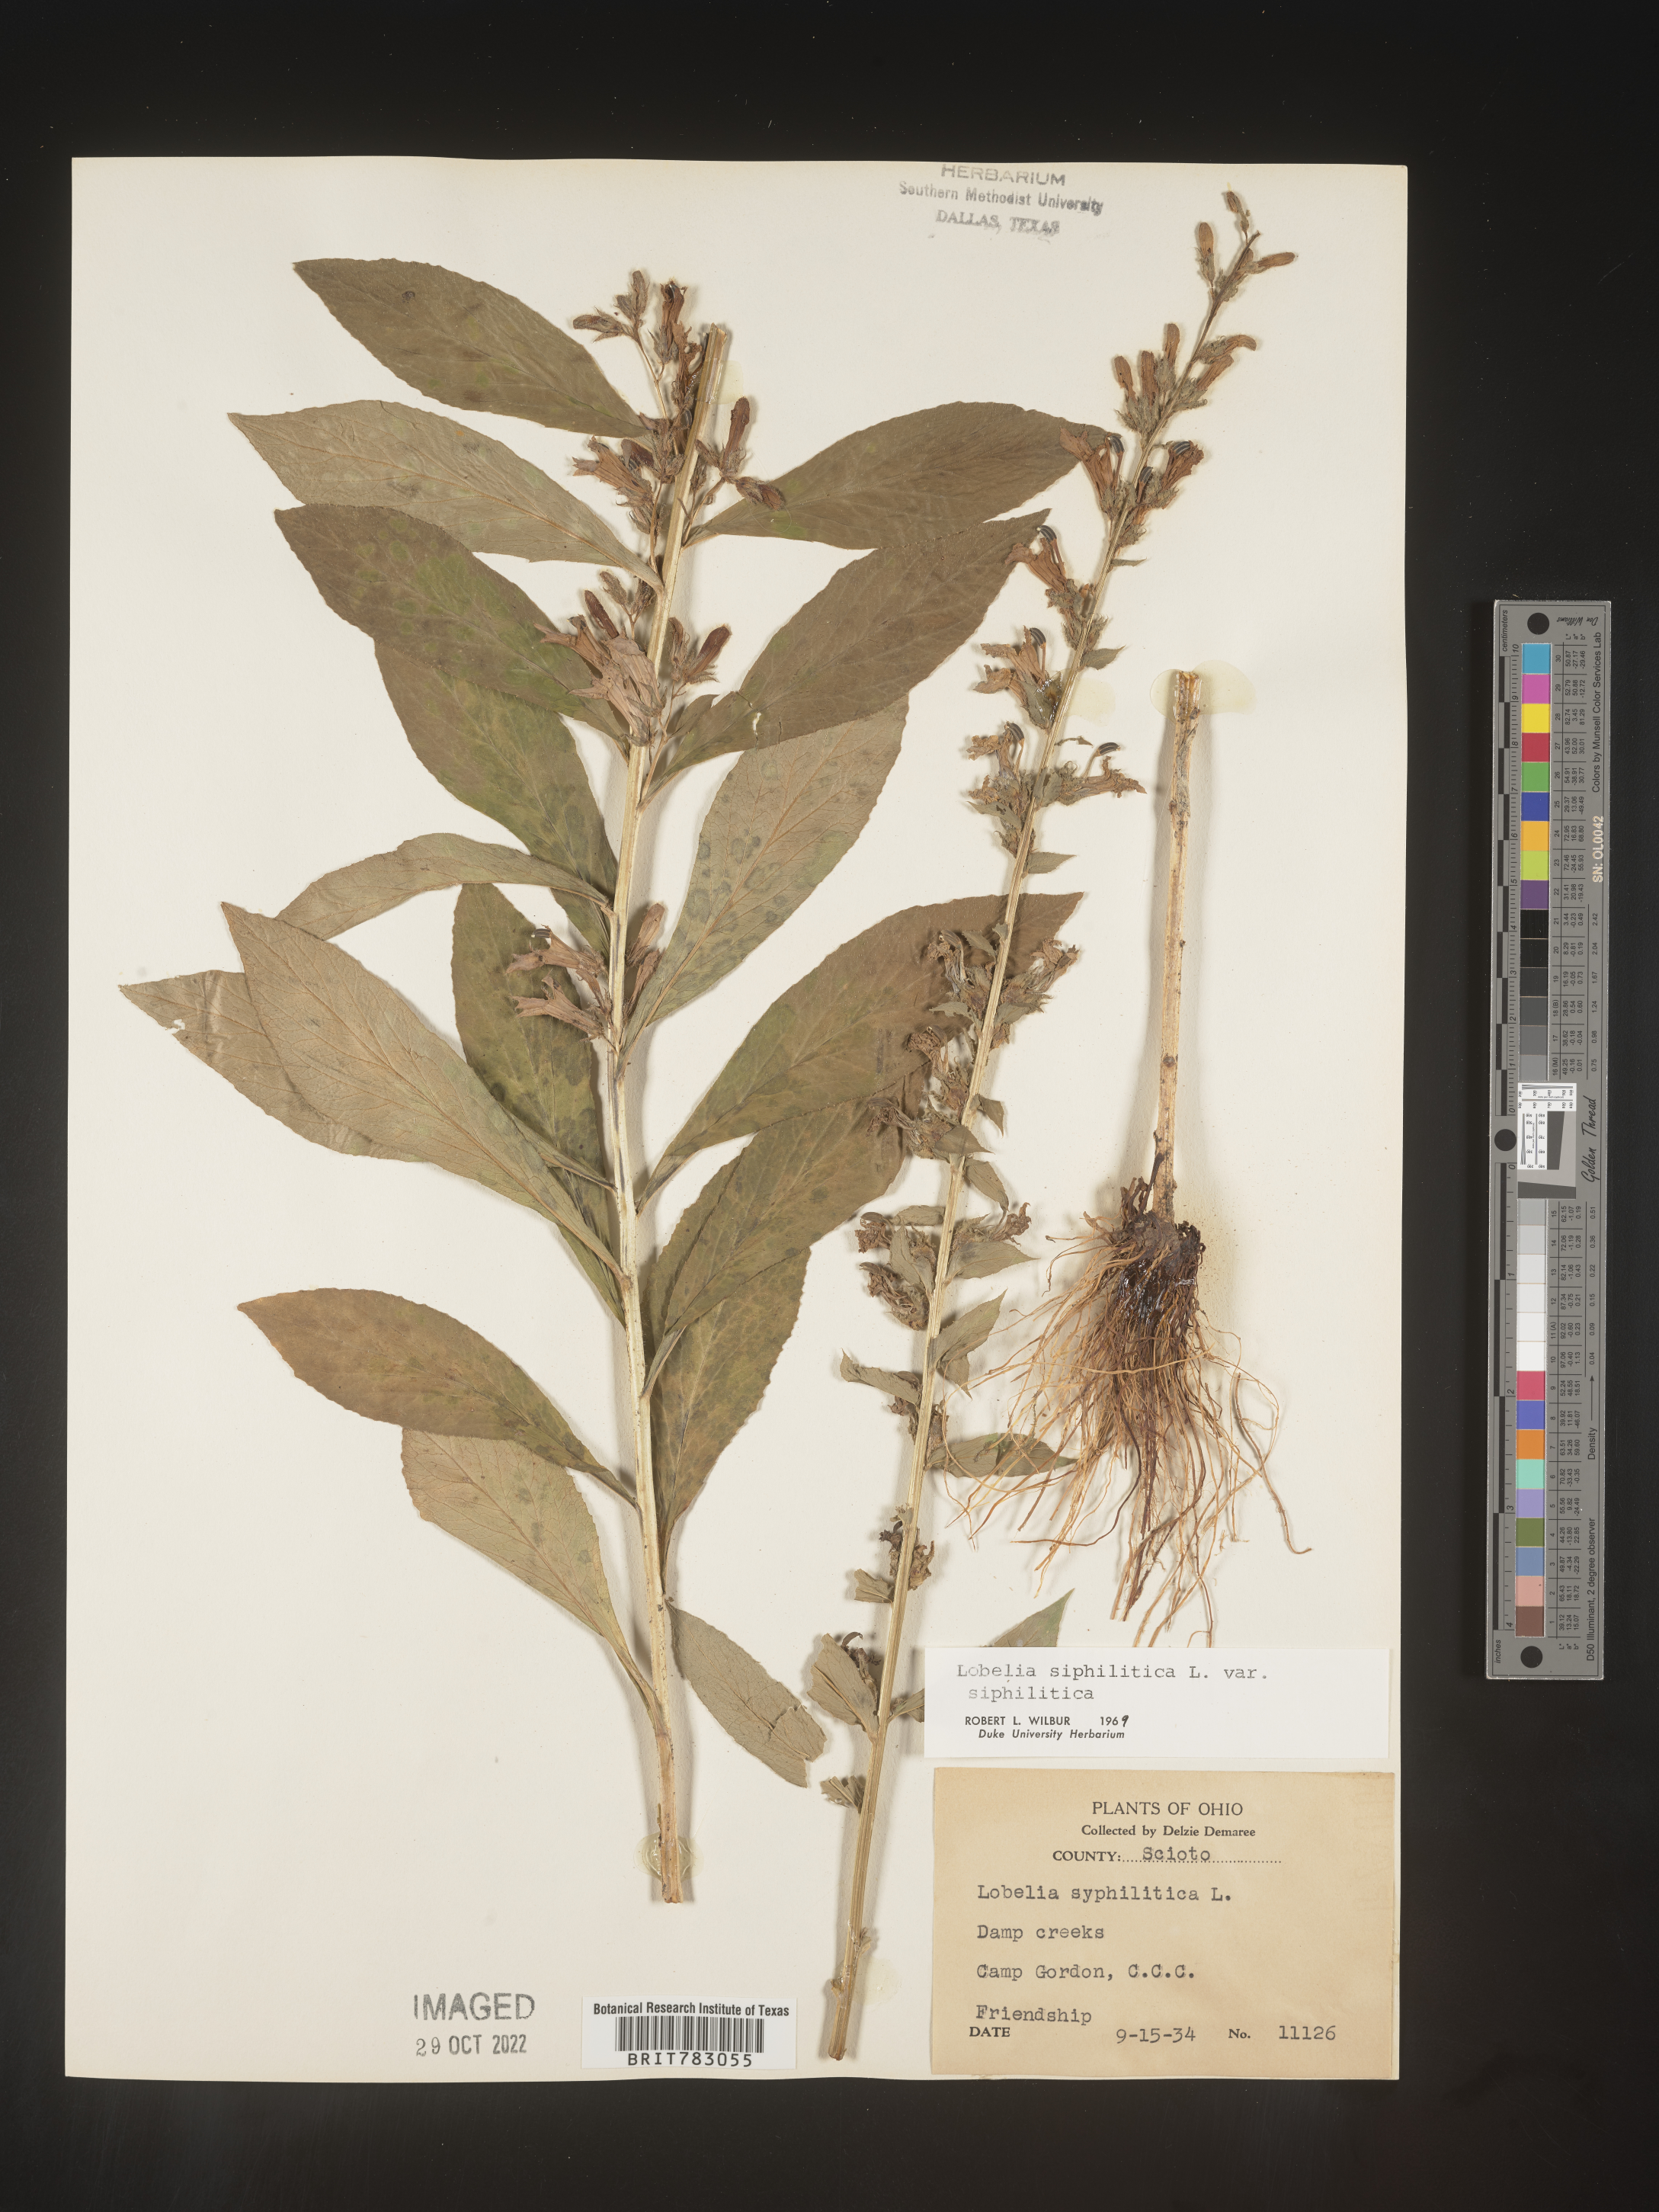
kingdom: Plantae
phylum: Tracheophyta
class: Magnoliopsida
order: Asterales
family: Campanulaceae
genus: Lobelia
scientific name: Lobelia siphilitica
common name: Great lobelia
